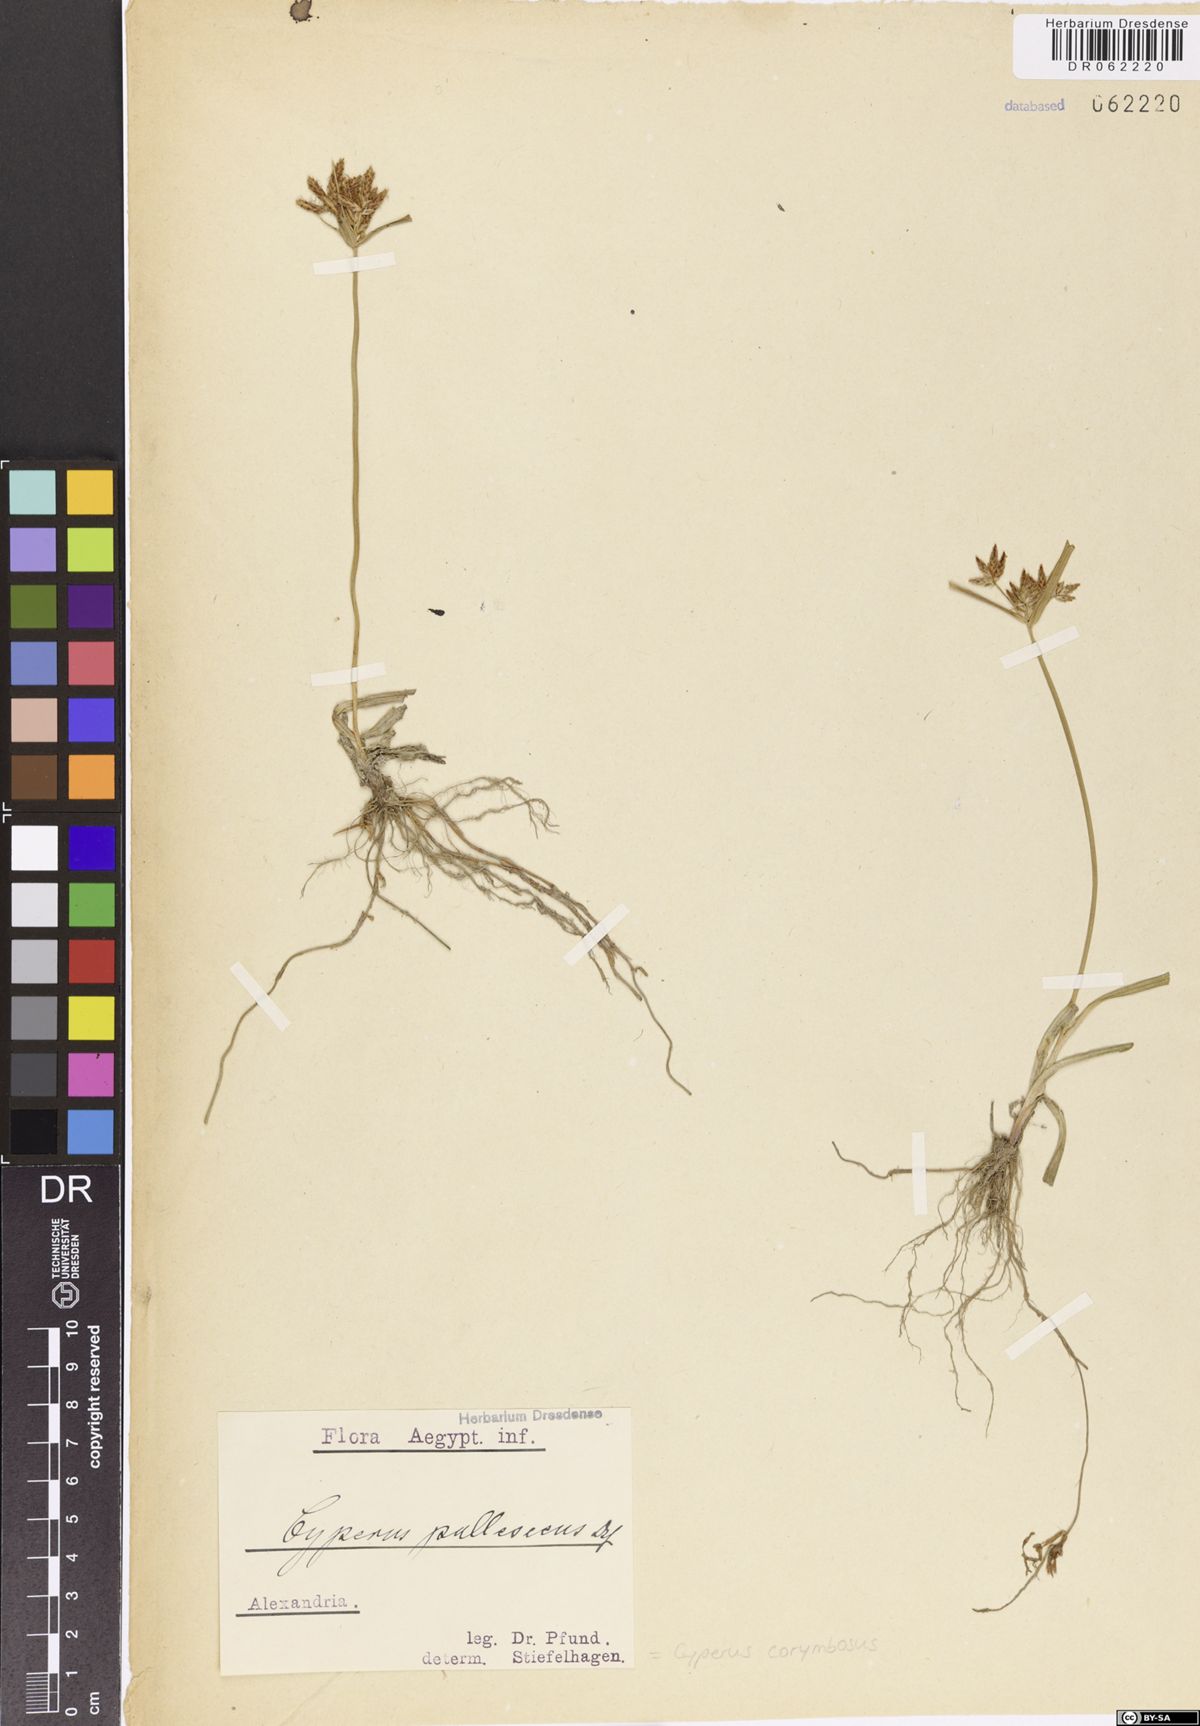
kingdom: Plantae
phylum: Tracheophyta
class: Liliopsida
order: Poales
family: Cyperaceae
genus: Cyperus
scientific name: Cyperus corymbosus
